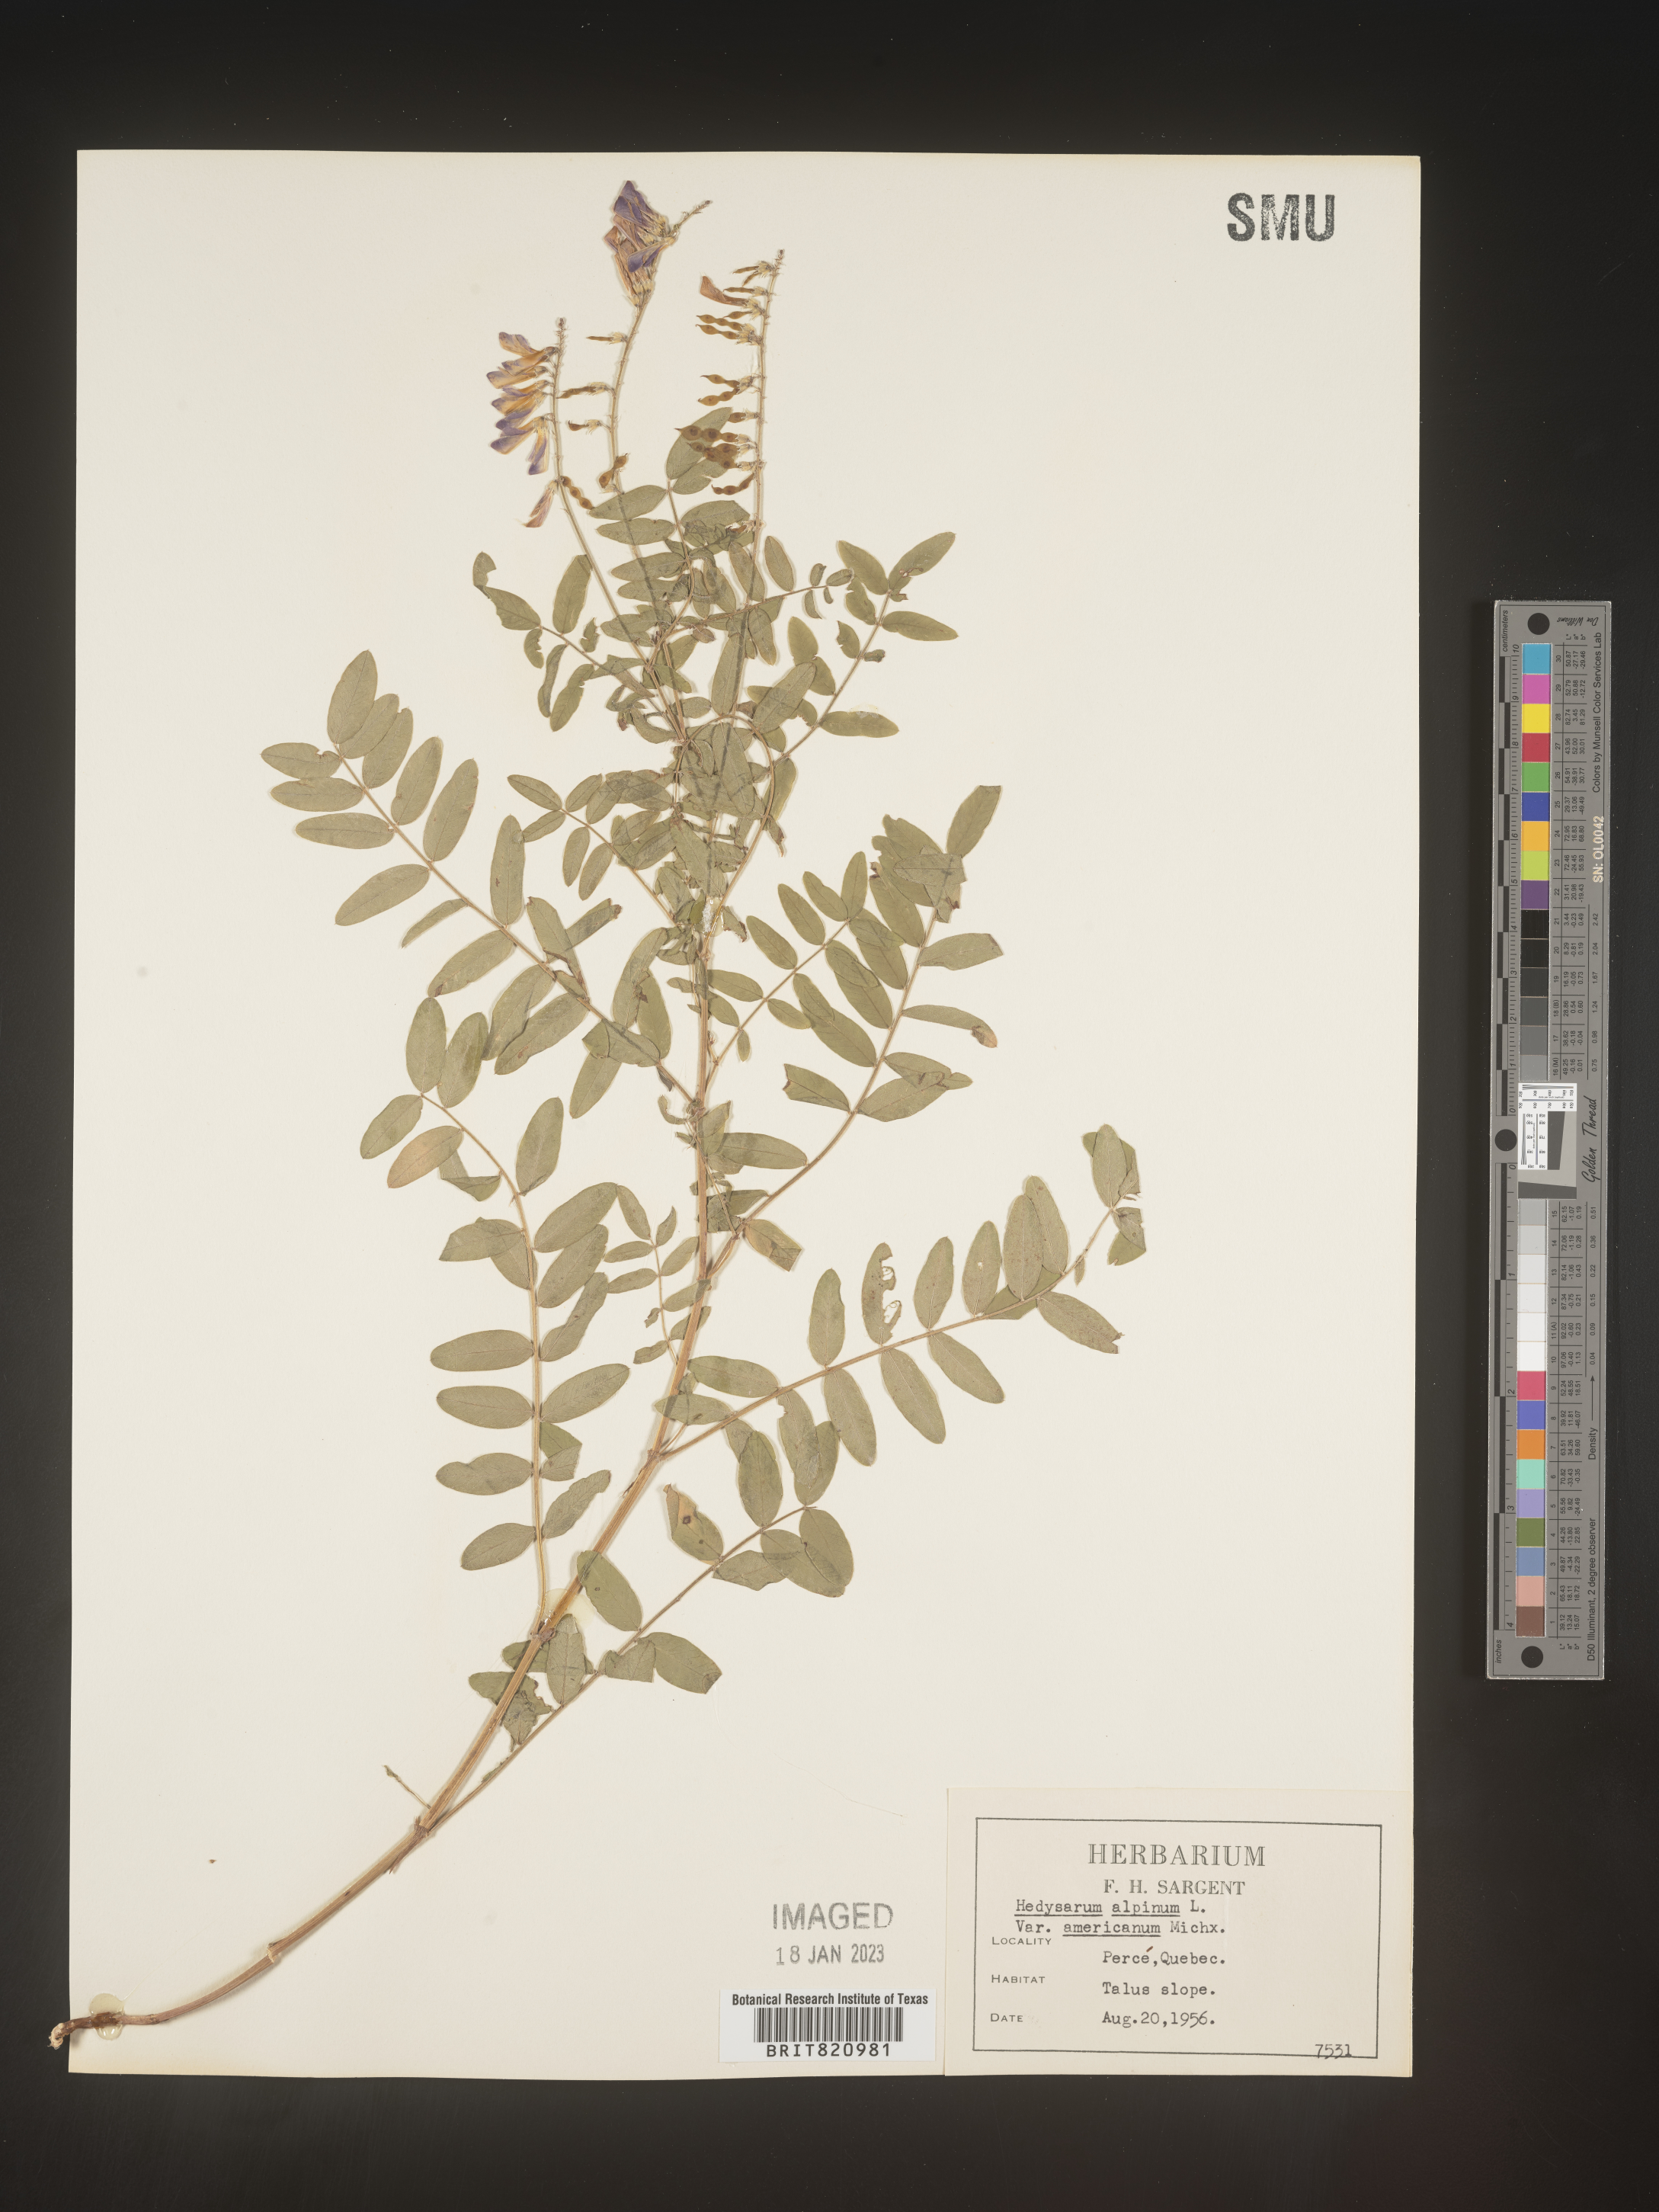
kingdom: Plantae
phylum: Tracheophyta
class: Magnoliopsida
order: Fabales
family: Fabaceae
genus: Hedysarum
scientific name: Hedysarum alpinum
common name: Alpine sweet-vetch
